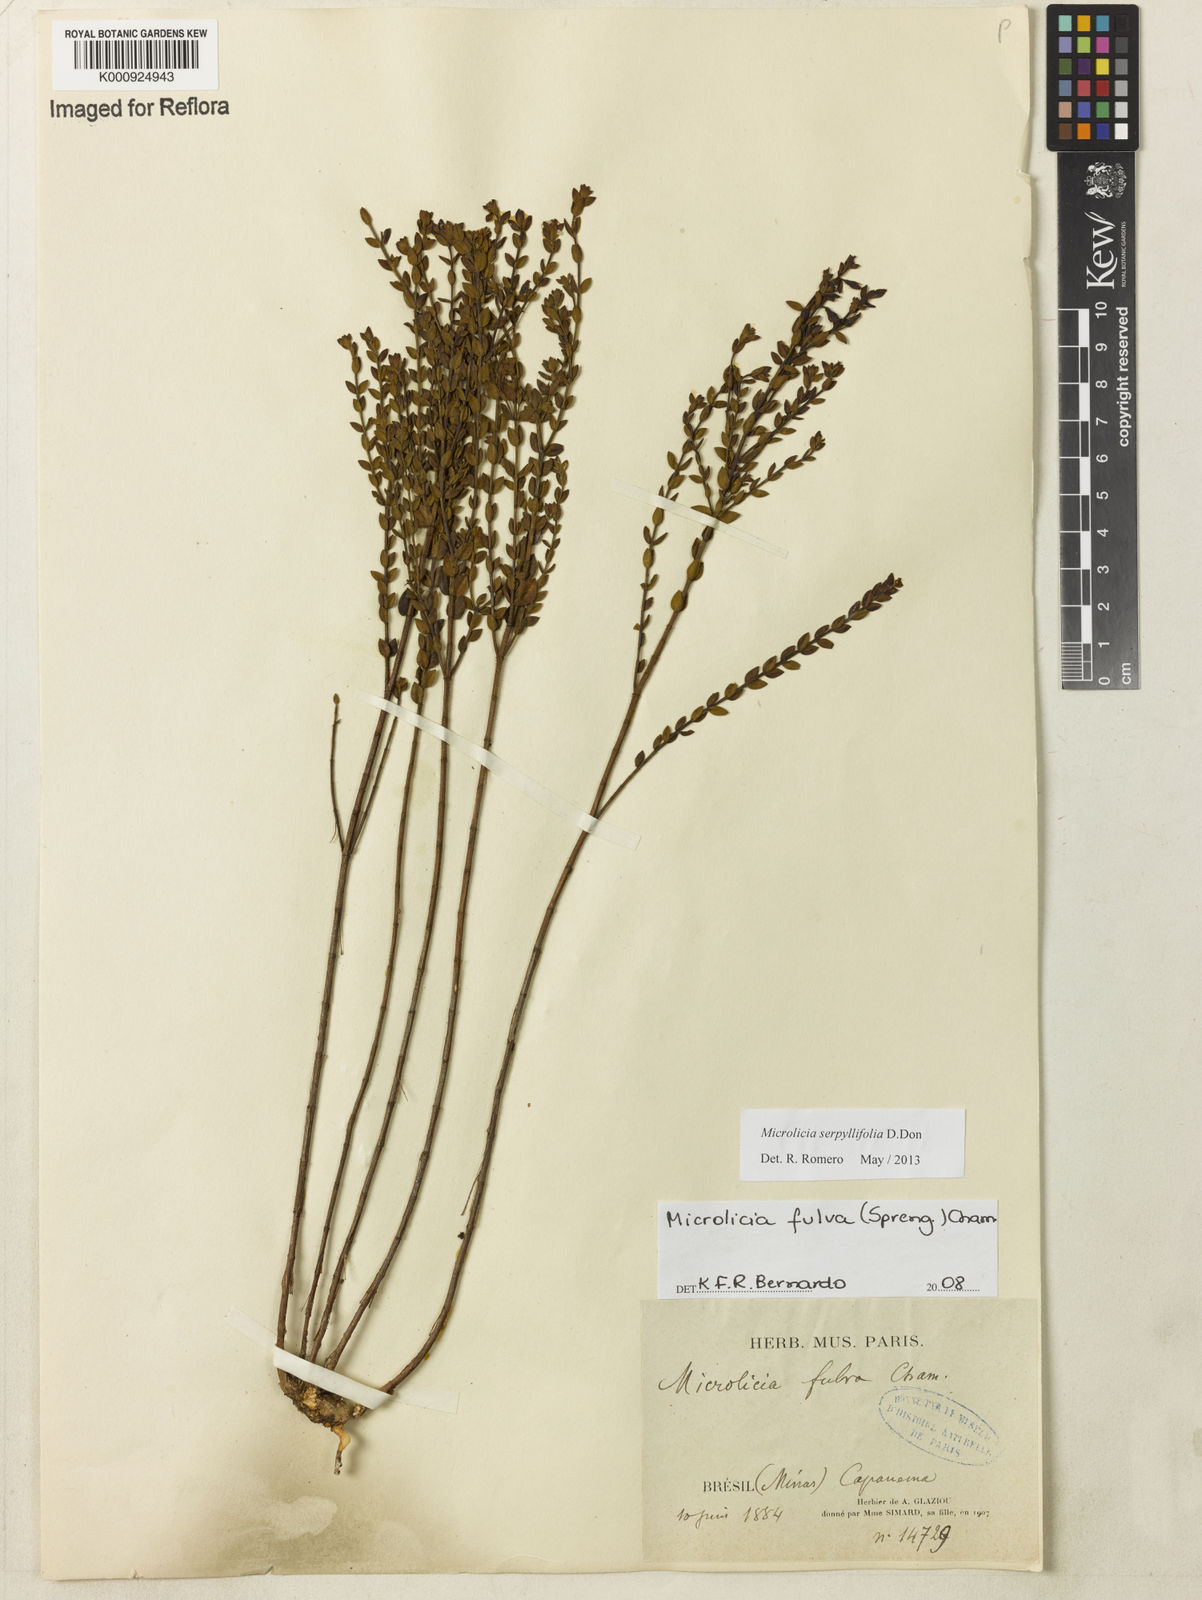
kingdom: Plantae
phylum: Tracheophyta
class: Magnoliopsida
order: Myrtales
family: Melastomataceae
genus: Microlicia
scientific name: Microlicia fulva
